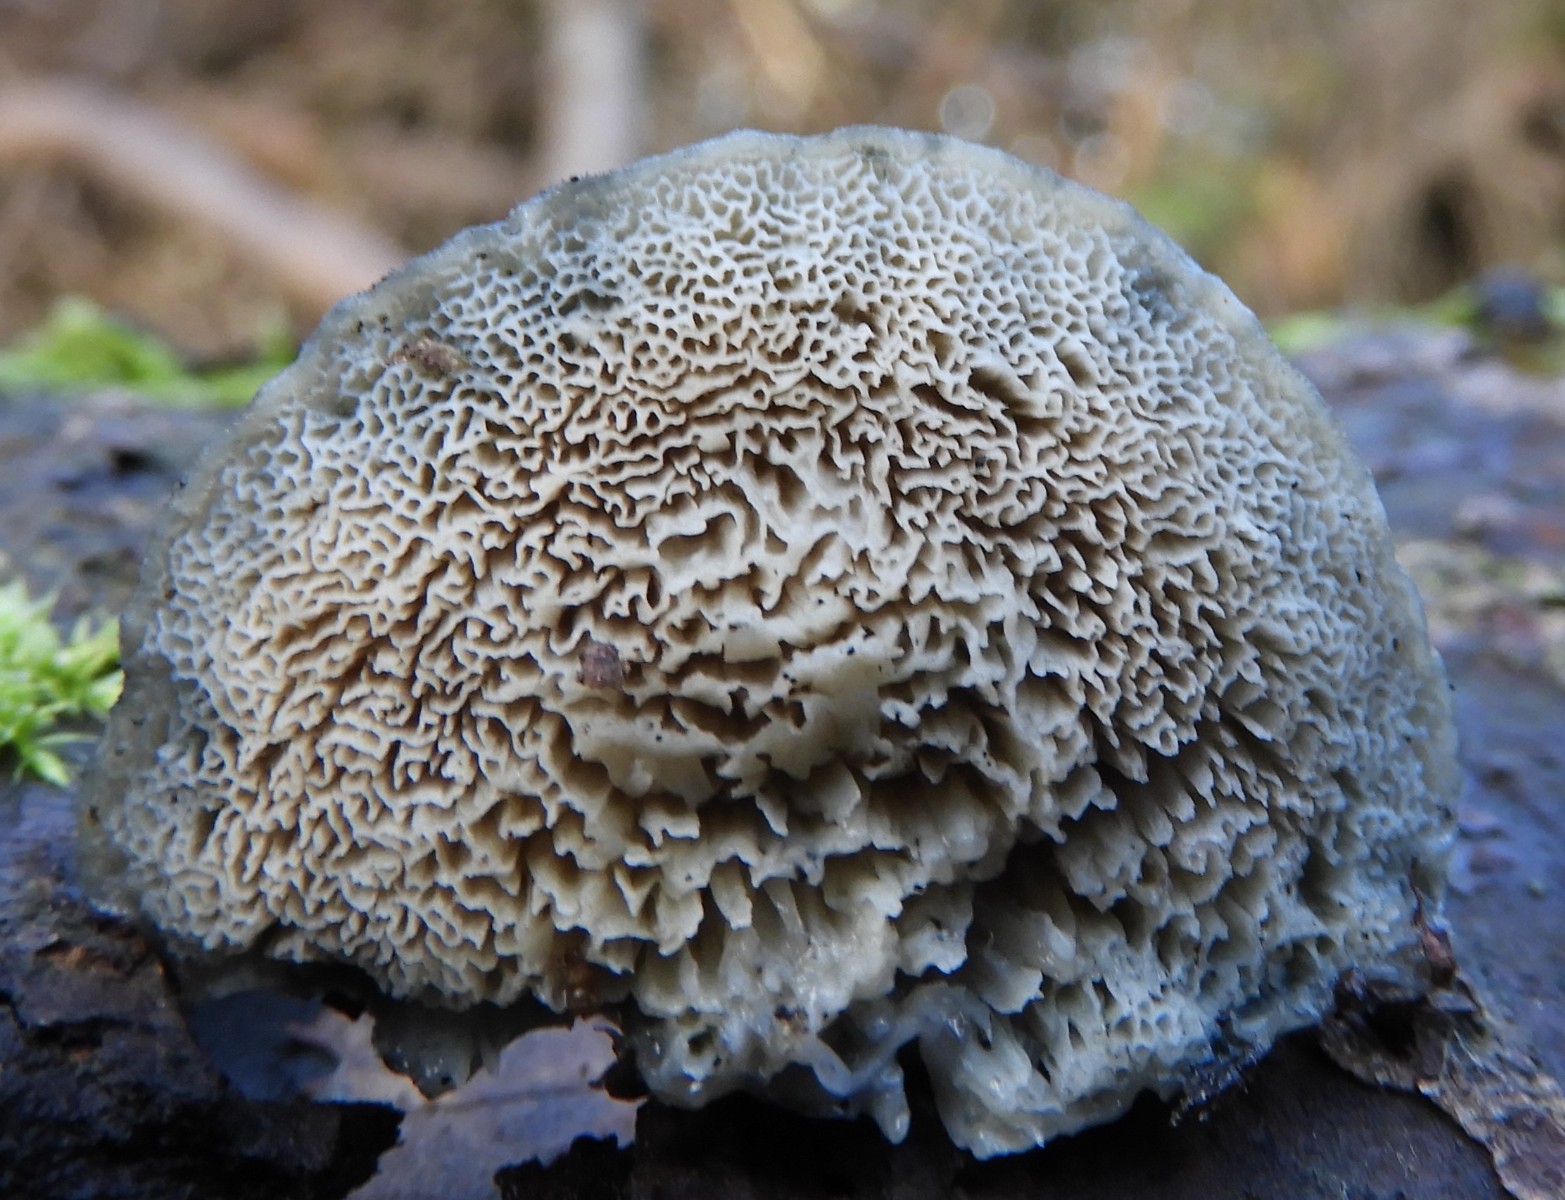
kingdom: Fungi
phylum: Basidiomycota
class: Agaricomycetes
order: Polyporales
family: Polyporaceae
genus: Cyanosporus
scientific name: Cyanosporus caesius
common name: blålig kødporesvamp
